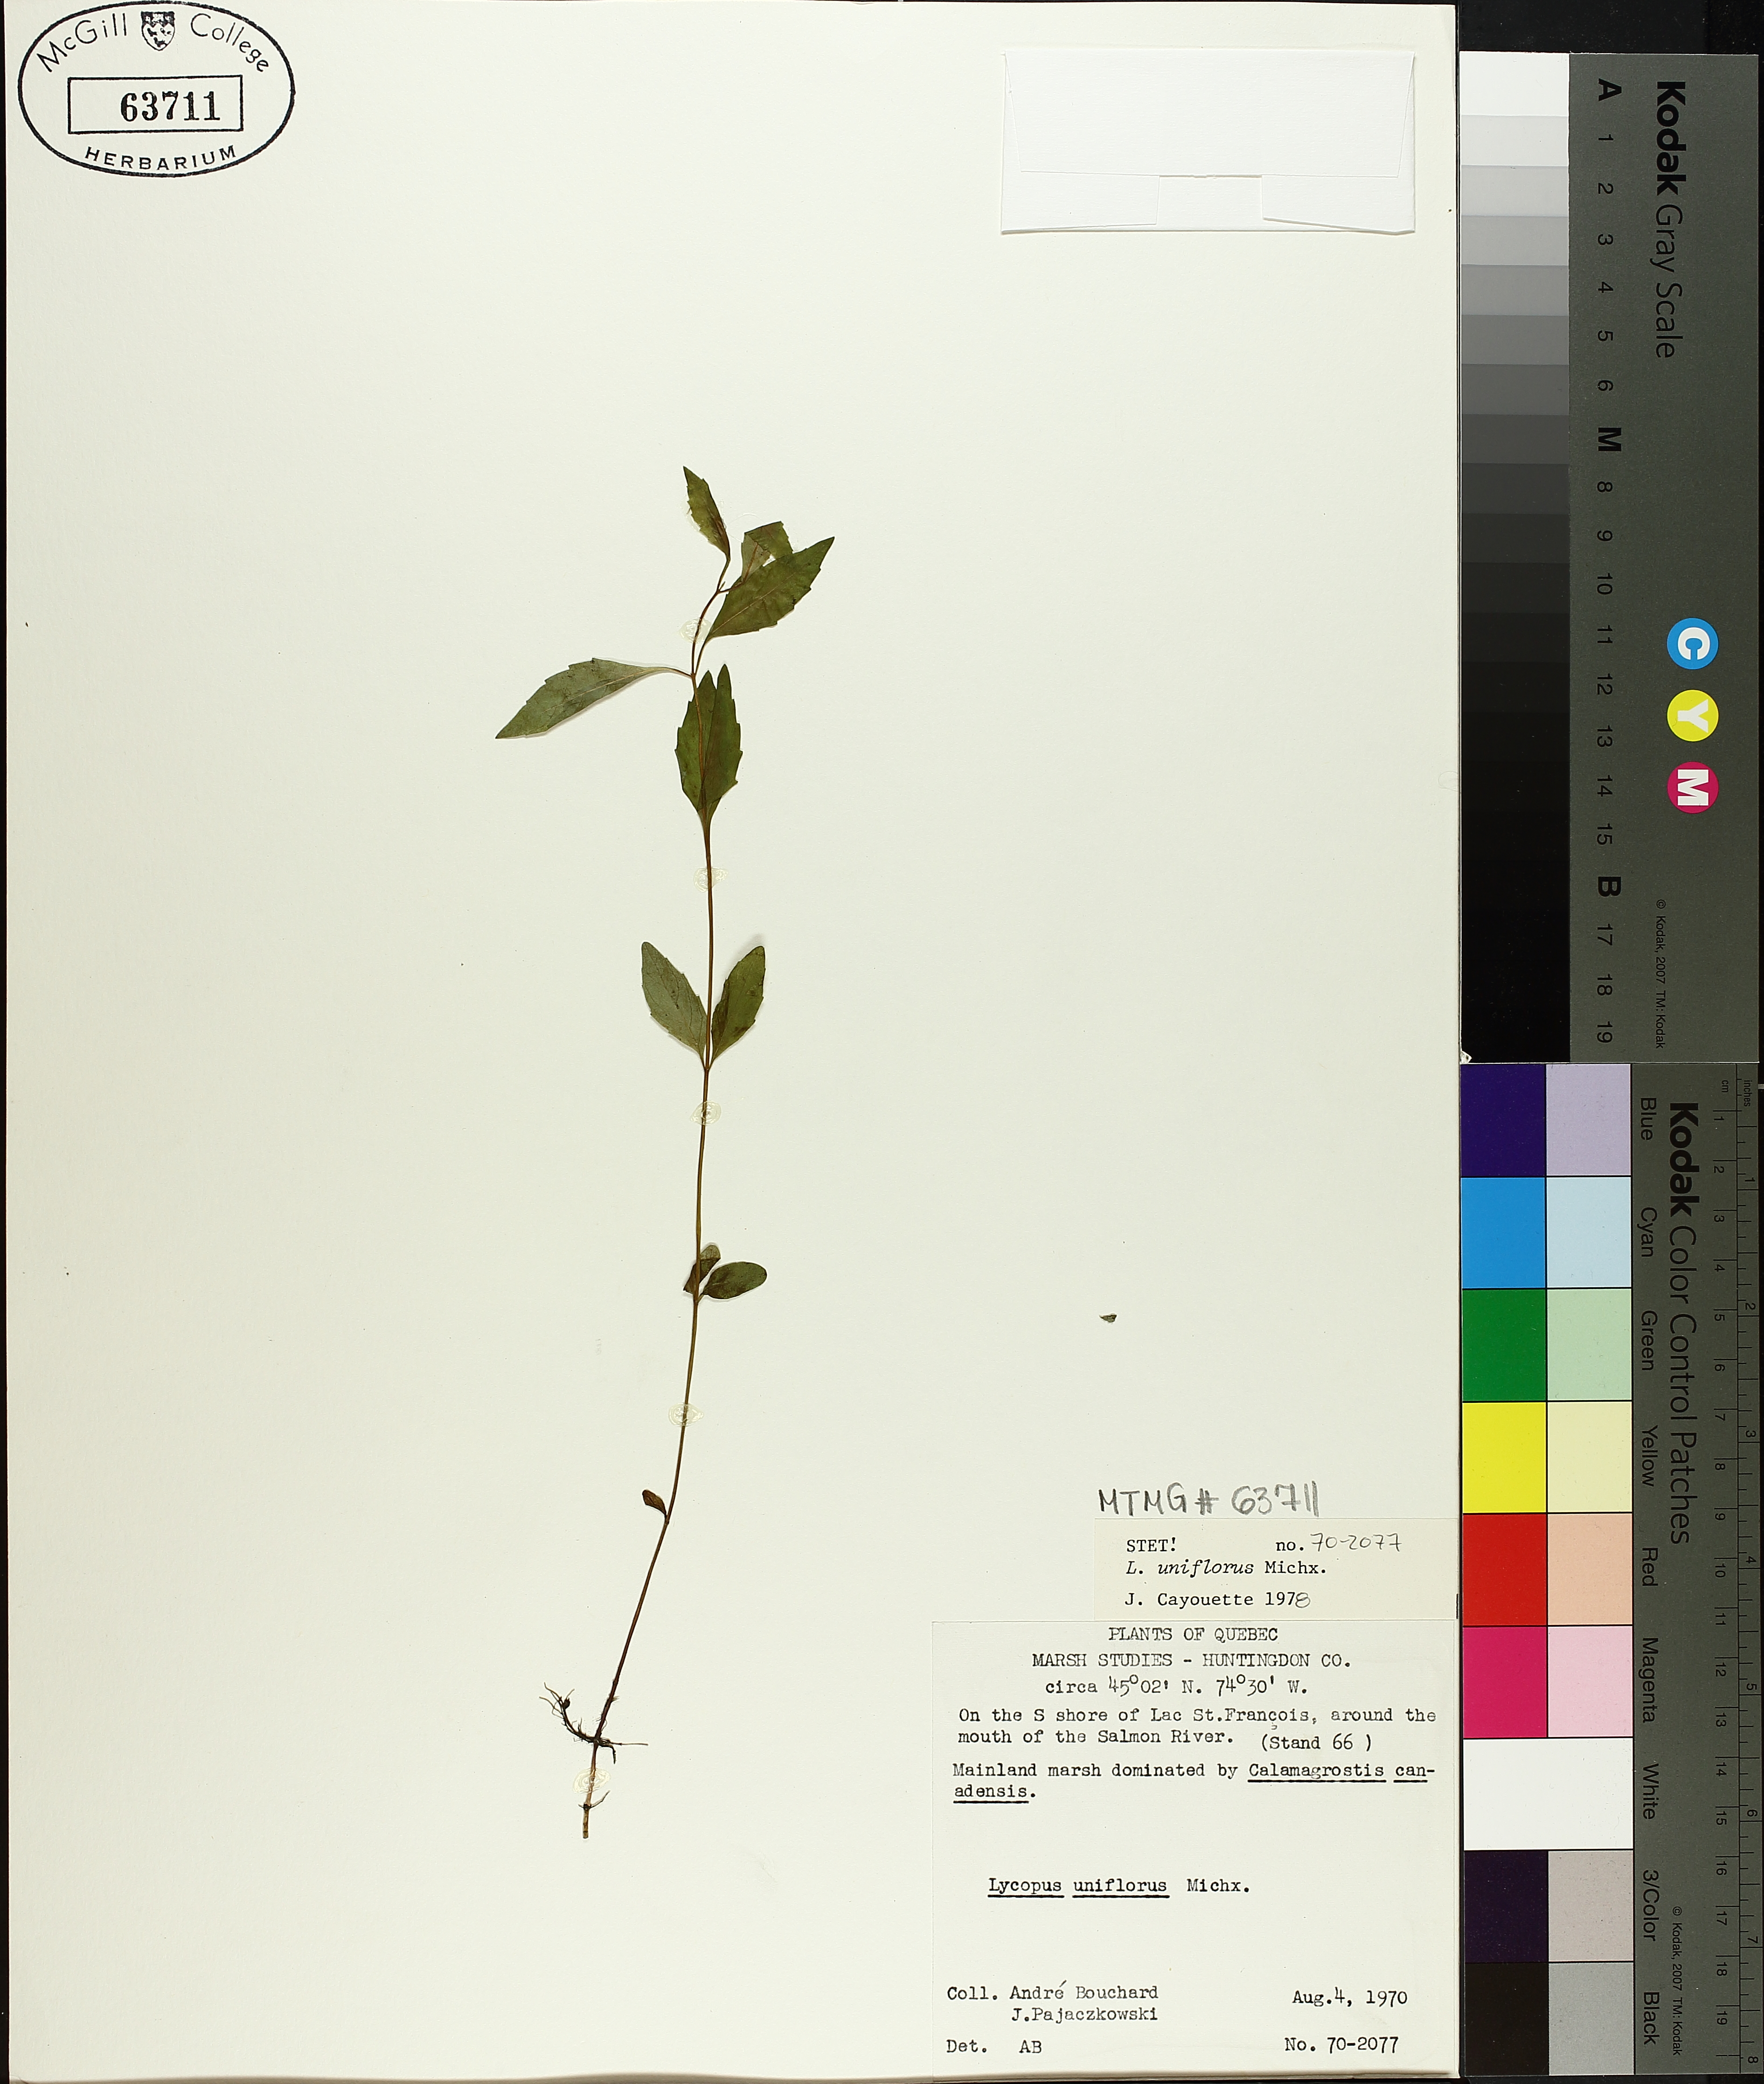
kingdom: Plantae
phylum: Tracheophyta
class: Magnoliopsida
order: Lamiales
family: Lamiaceae
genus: Lycopus
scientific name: Lycopus uniflorus
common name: Northern bugleweed
